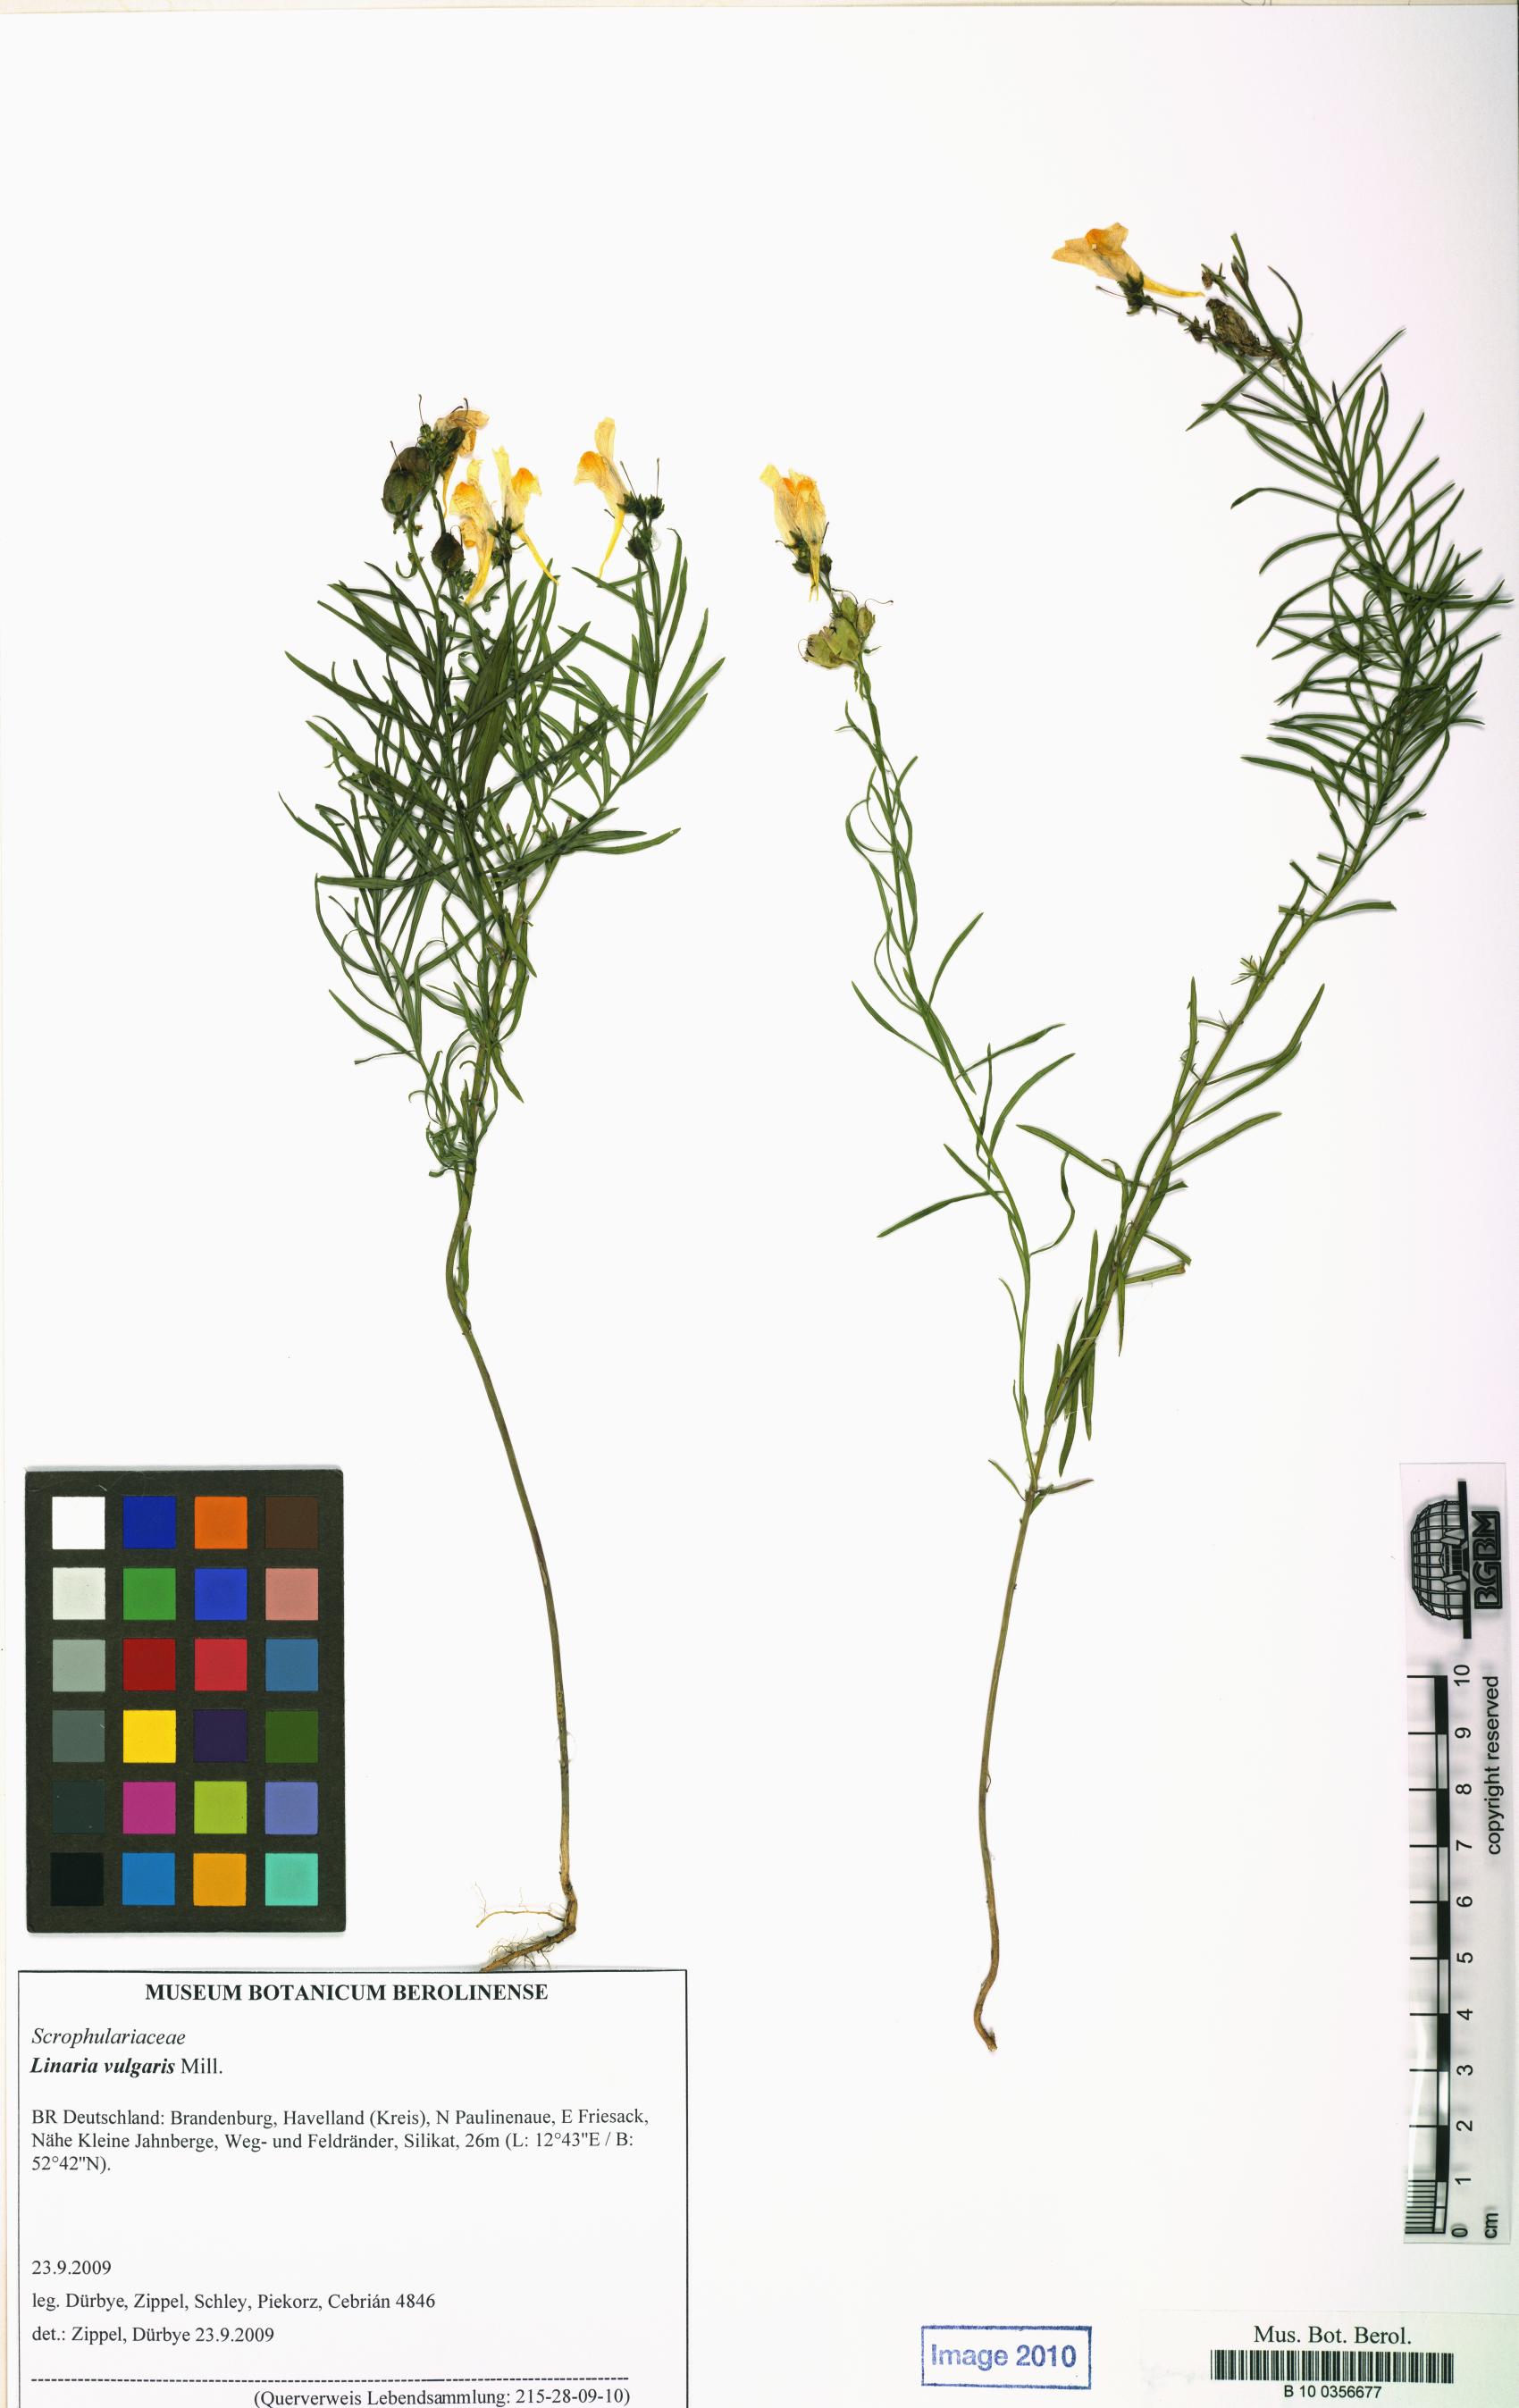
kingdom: Plantae
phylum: Tracheophyta
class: Magnoliopsida
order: Lamiales
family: Plantaginaceae
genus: Linaria
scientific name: Linaria vulgaris
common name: Butter and eggs
